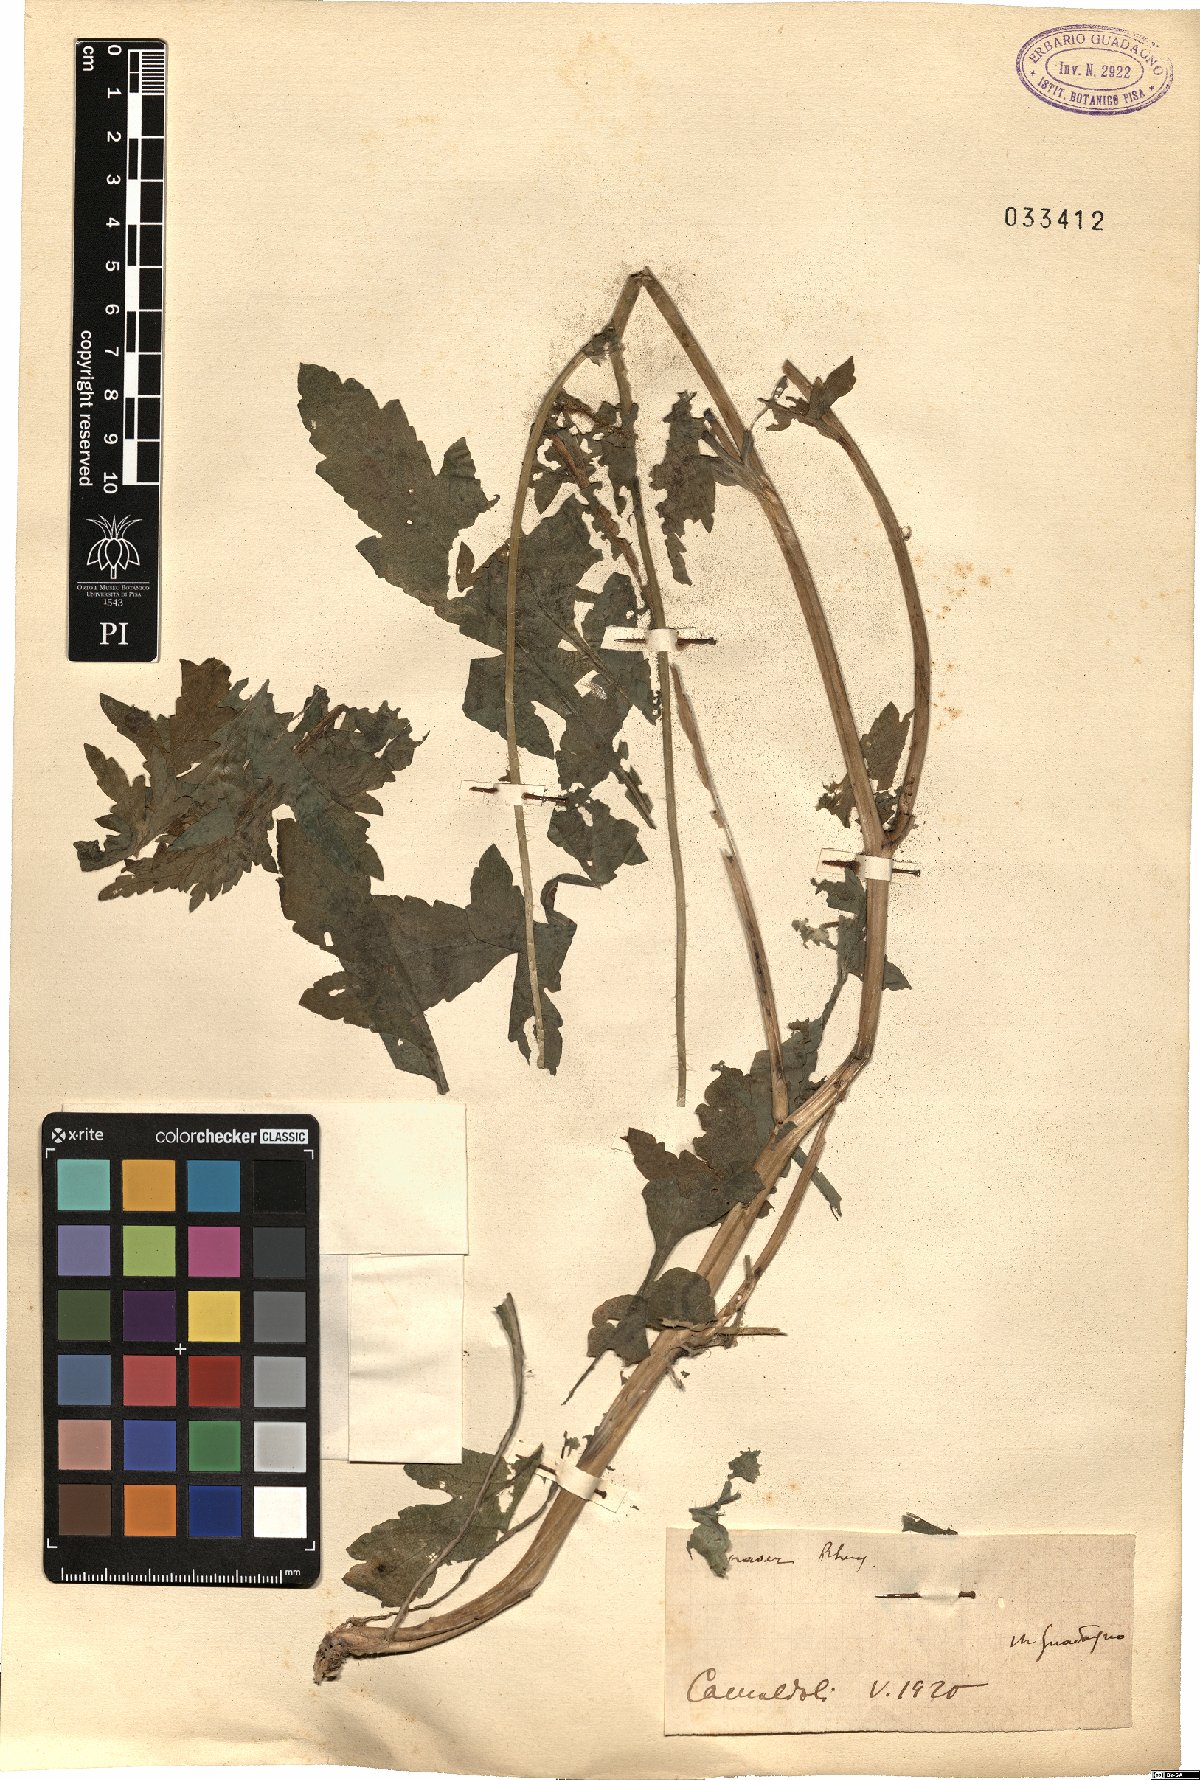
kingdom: Plantae
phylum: Tracheophyta
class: Magnoliopsida
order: Ranunculales
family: Papaveraceae
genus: Papaver
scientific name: Papaver rhoeas
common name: Corn poppy
